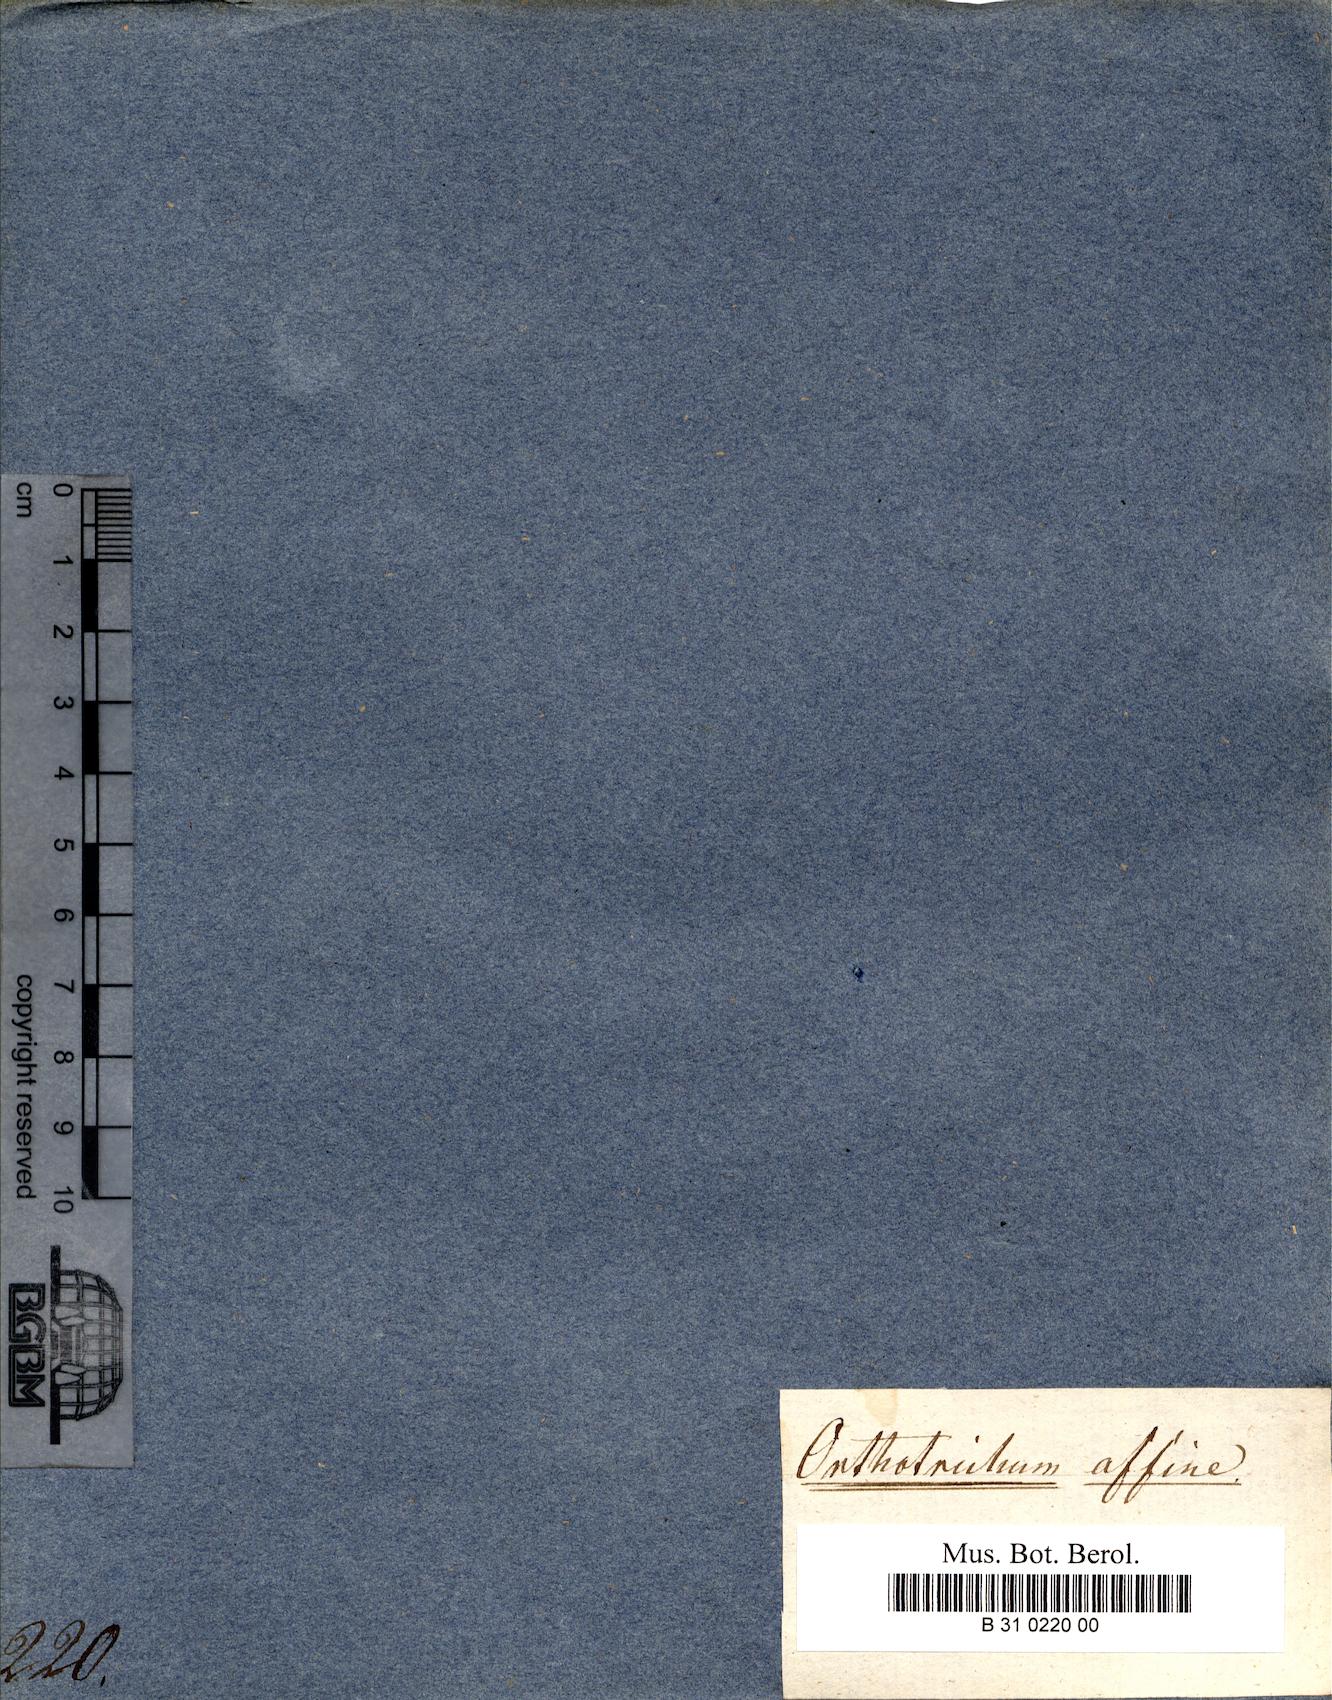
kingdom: Plantae
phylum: Bryophyta
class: Bryopsida
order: Orthotrichales
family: Orthotrichaceae
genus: Lewinskya
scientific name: Lewinskya affinis
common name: Wood bristle-moss
